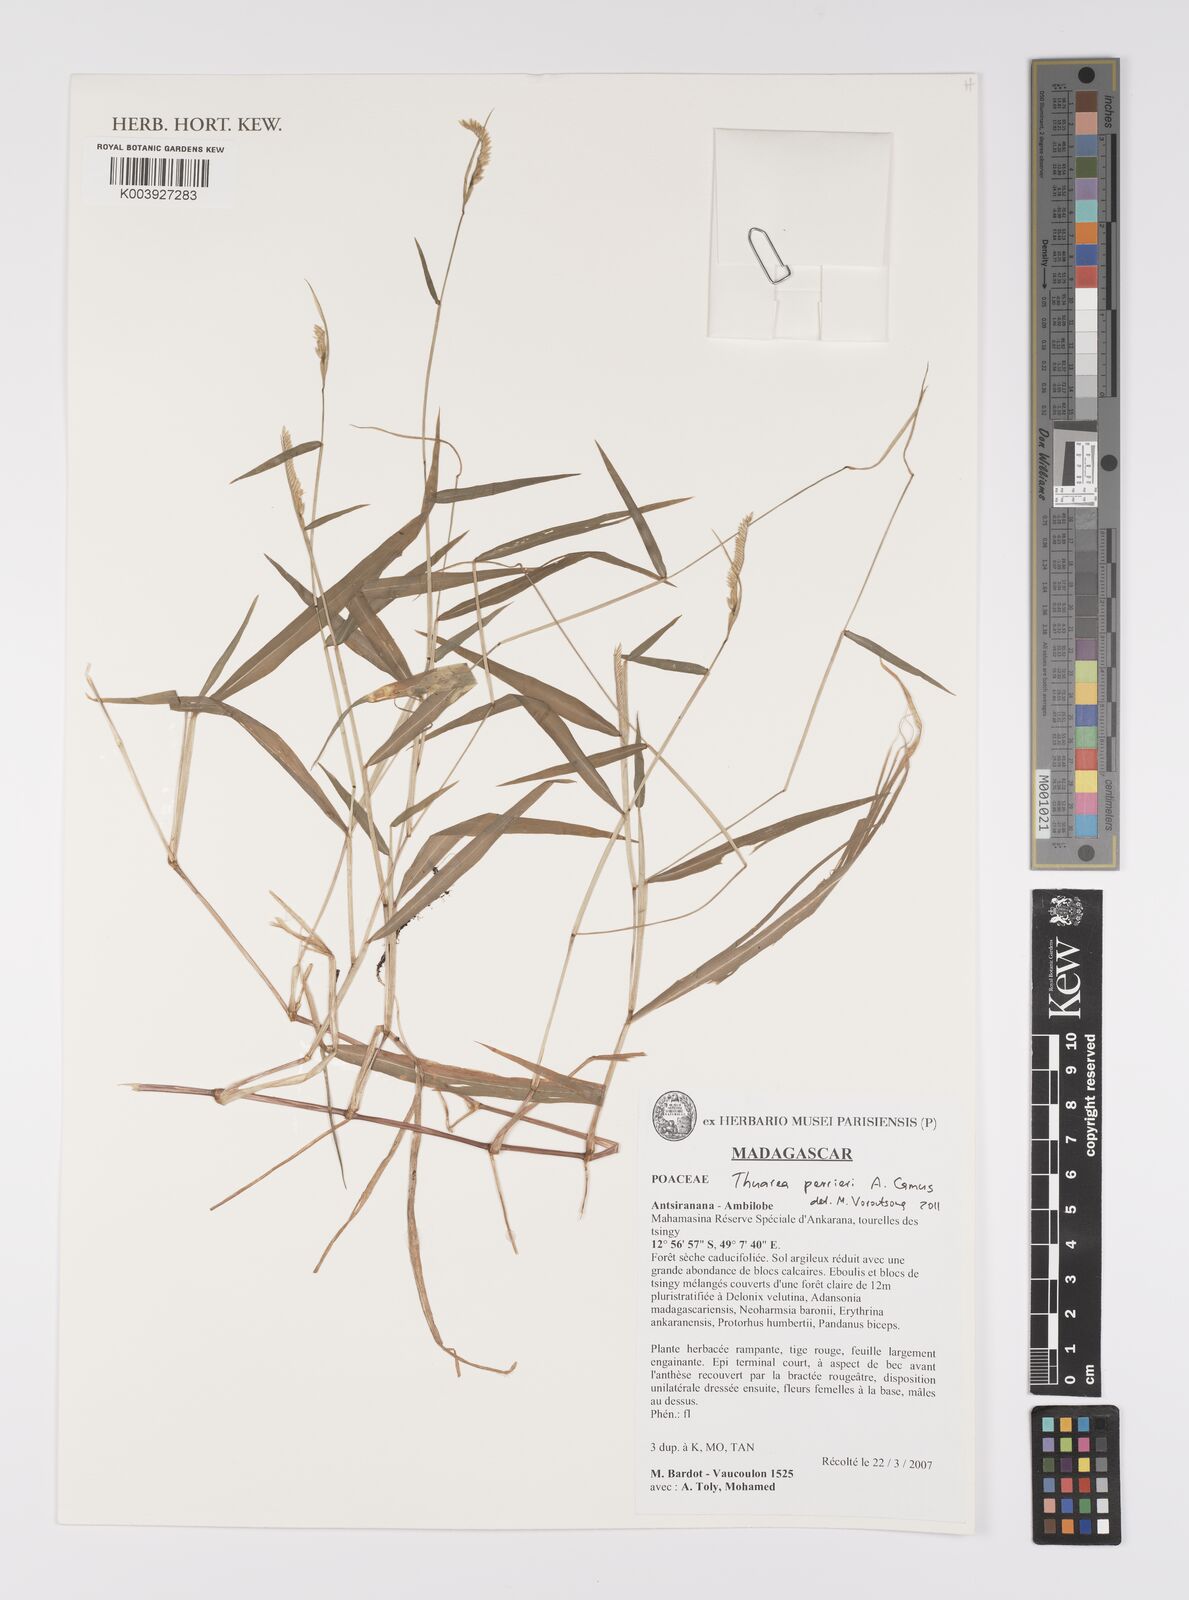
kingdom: Plantae
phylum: Tracheophyta
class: Liliopsida
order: Poales
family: Poaceae
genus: Thuarea
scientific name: Thuarea perrieri
